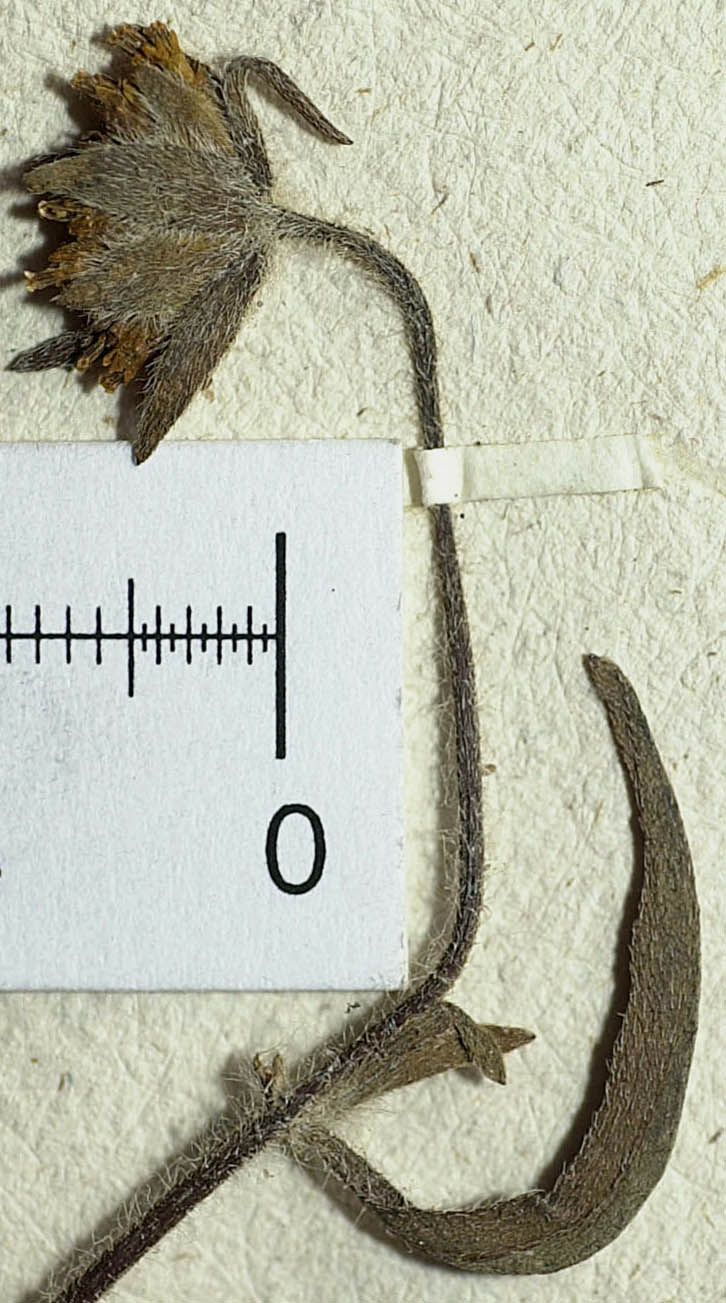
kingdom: Plantae
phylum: Tracheophyta
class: Magnoliopsida
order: Asterales
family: Asteraceae
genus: Wedelia
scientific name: Wedelia martii
